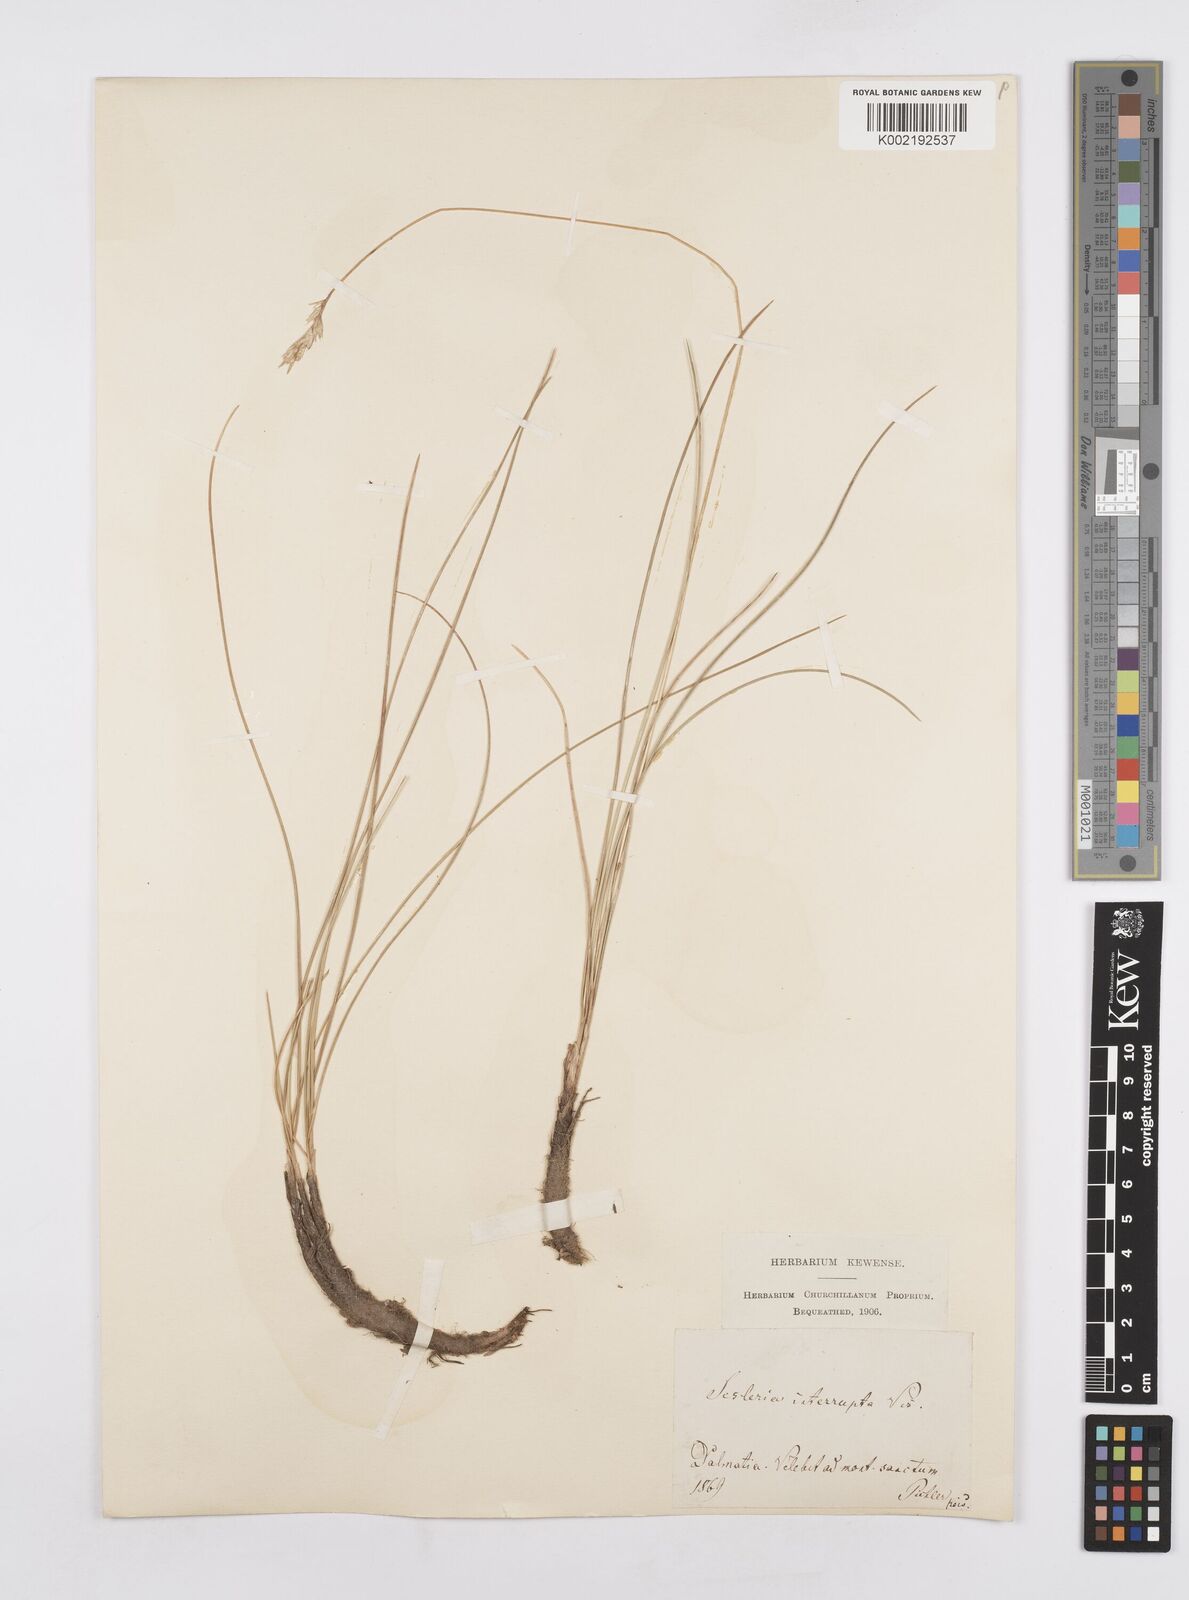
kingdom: Plantae
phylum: Tracheophyta
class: Liliopsida
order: Poales
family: Poaceae
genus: Sesleria
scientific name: Sesleria juncifolia
